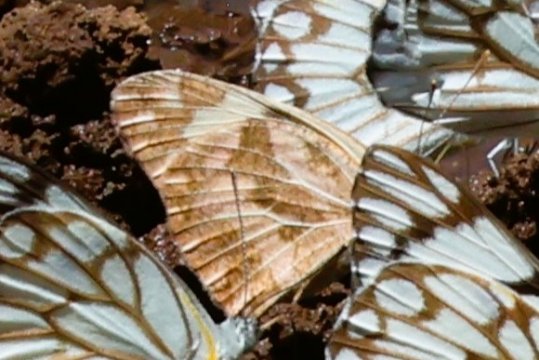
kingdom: Animalia
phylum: Arthropoda
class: Insecta
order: Lepidoptera
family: Pieridae
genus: Pinacopteryx
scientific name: Pinacopteryx eriphia
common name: Zebra White
